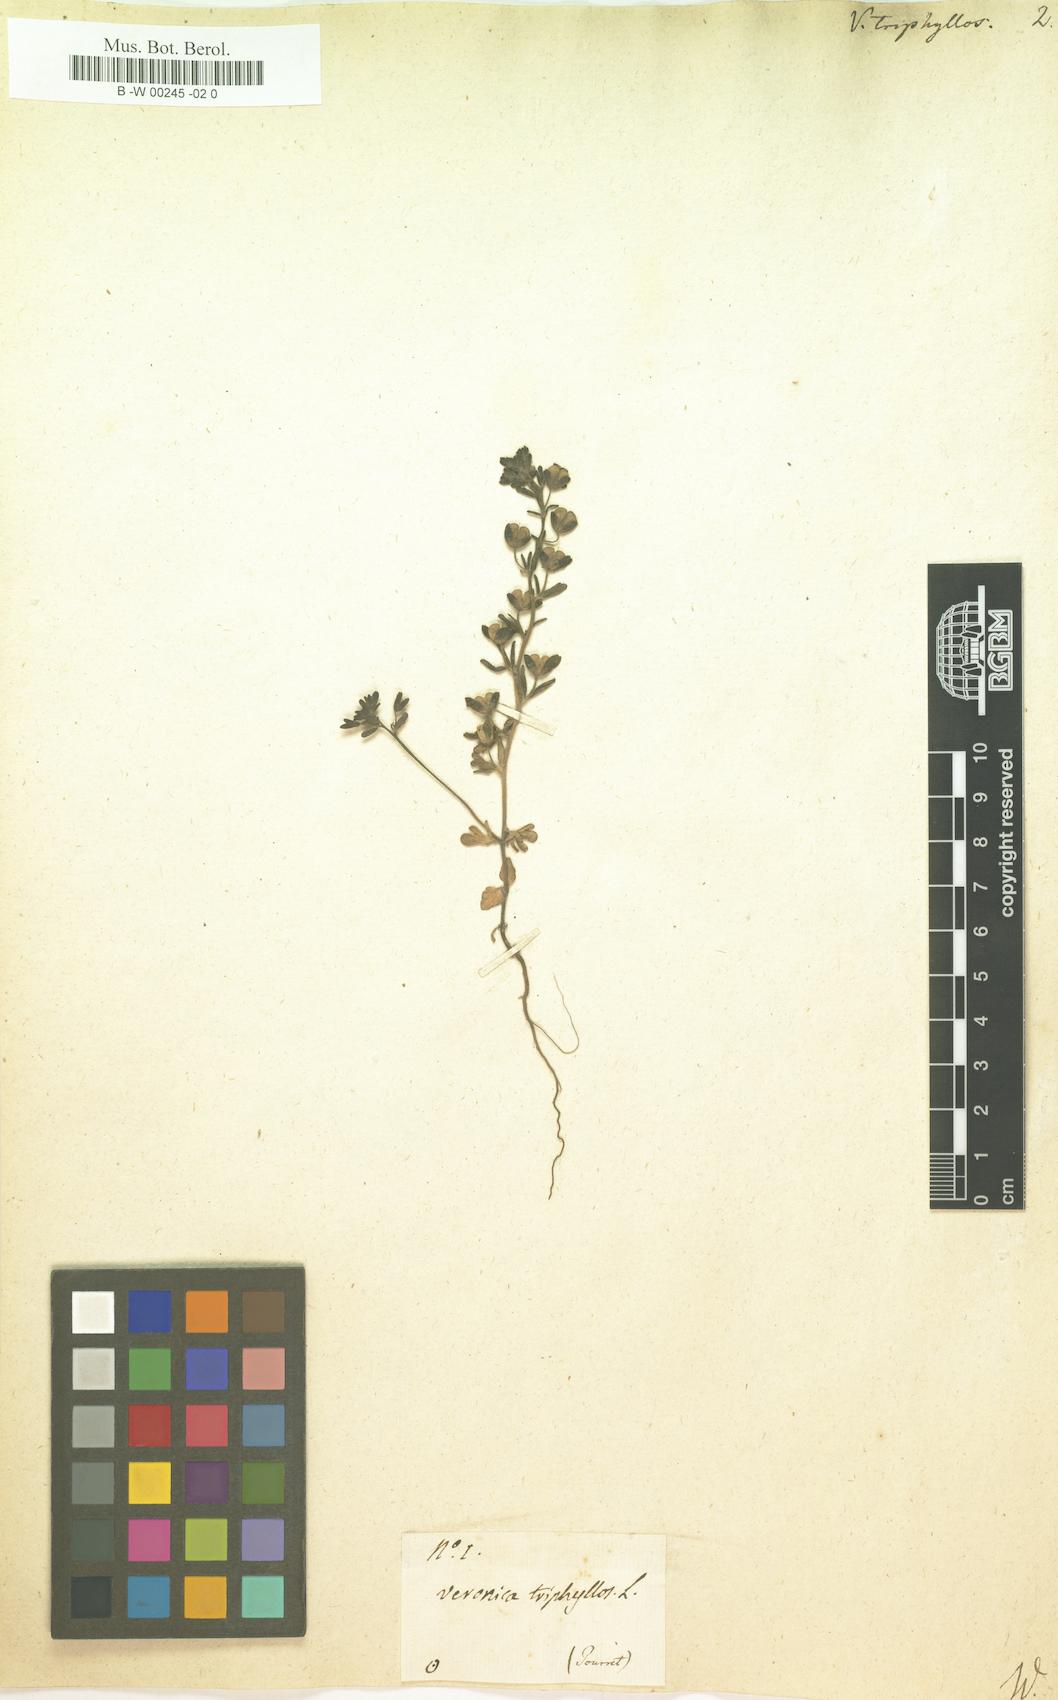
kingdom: Plantae
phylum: Tracheophyta
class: Magnoliopsida
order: Lamiales
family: Plantaginaceae
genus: Veronica
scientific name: Veronica triphyllos
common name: Fingered speedwell
